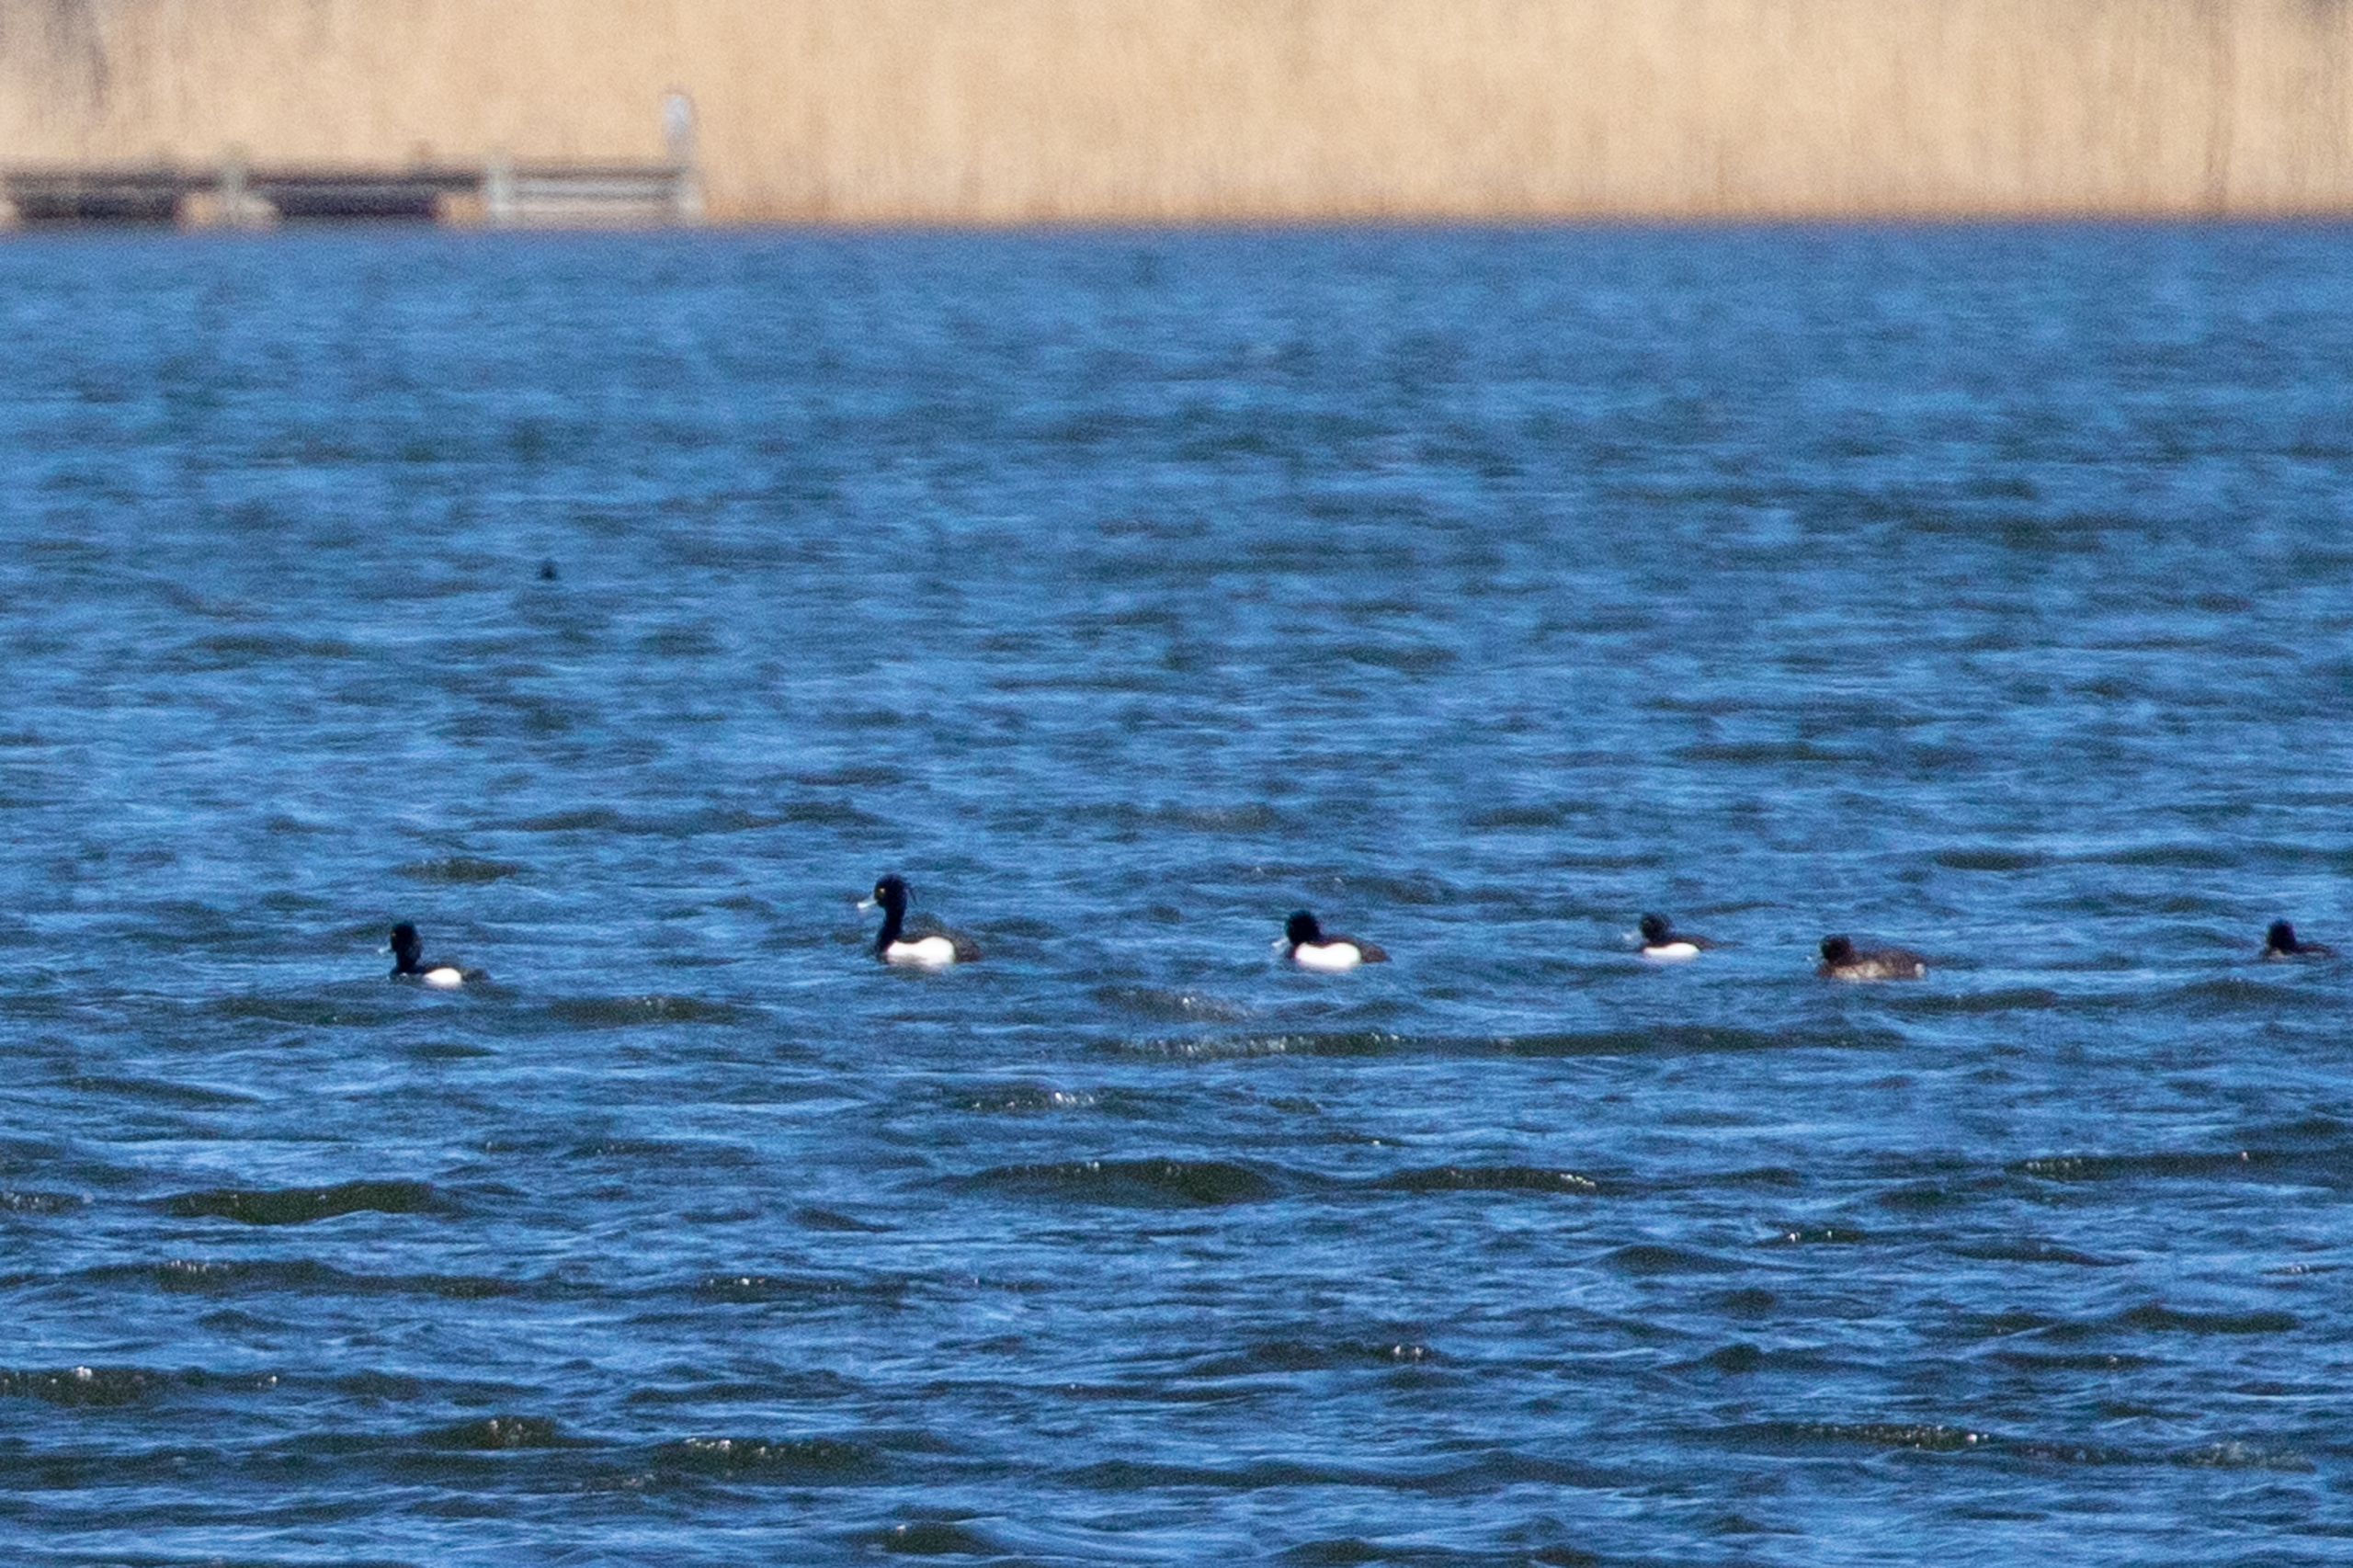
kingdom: Animalia
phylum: Chordata
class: Aves
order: Anseriformes
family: Anatidae
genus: Aythya
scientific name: Aythya fuligula
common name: Troldand
